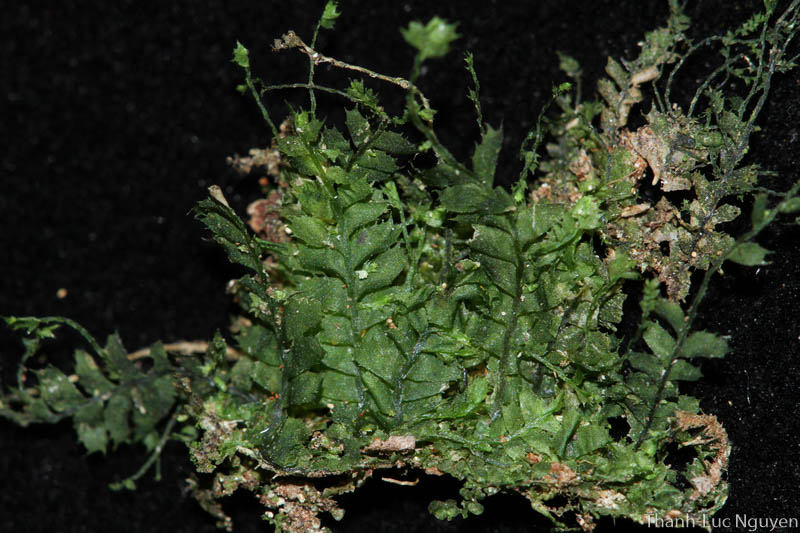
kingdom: Plantae
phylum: Marchantiophyta
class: Jungermanniopsida
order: Jungermanniales
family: Plagiochilaceae
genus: Plagiochila
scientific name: Plagiochila
